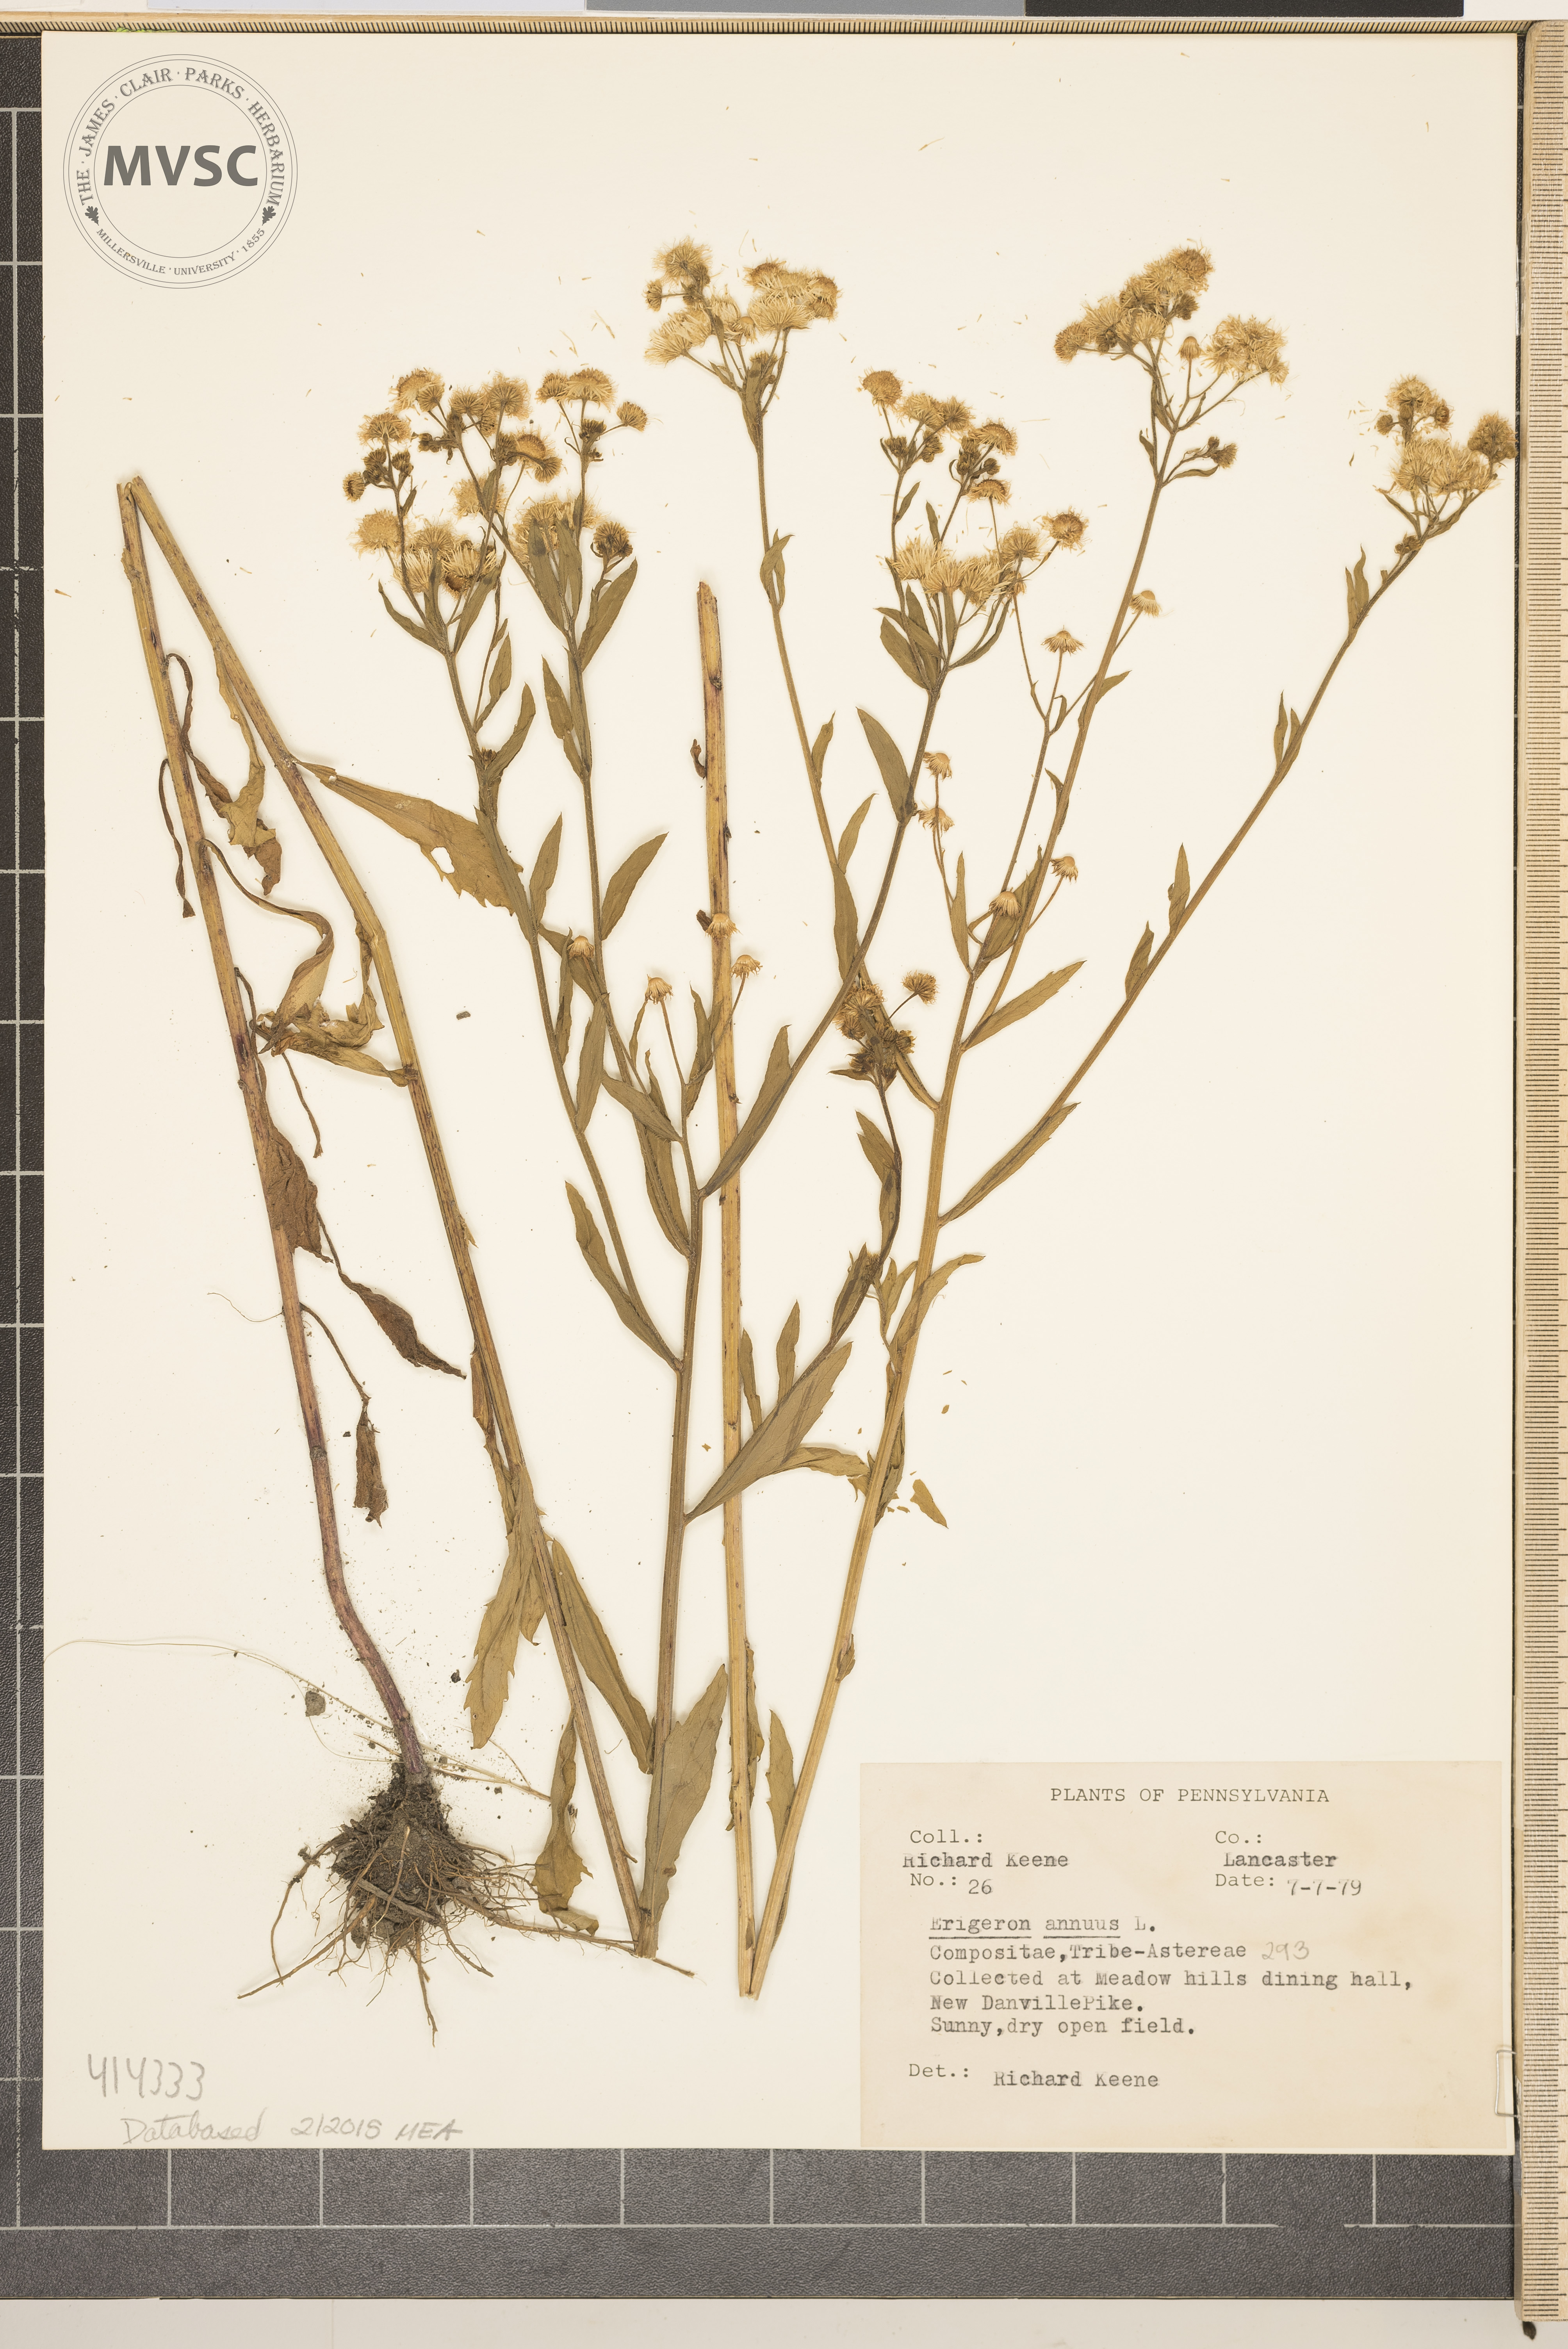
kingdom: Plantae
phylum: Tracheophyta
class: Magnoliopsida
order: Asterales
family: Asteraceae
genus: Erigeron
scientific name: Erigeron annuus
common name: annual fleabane
